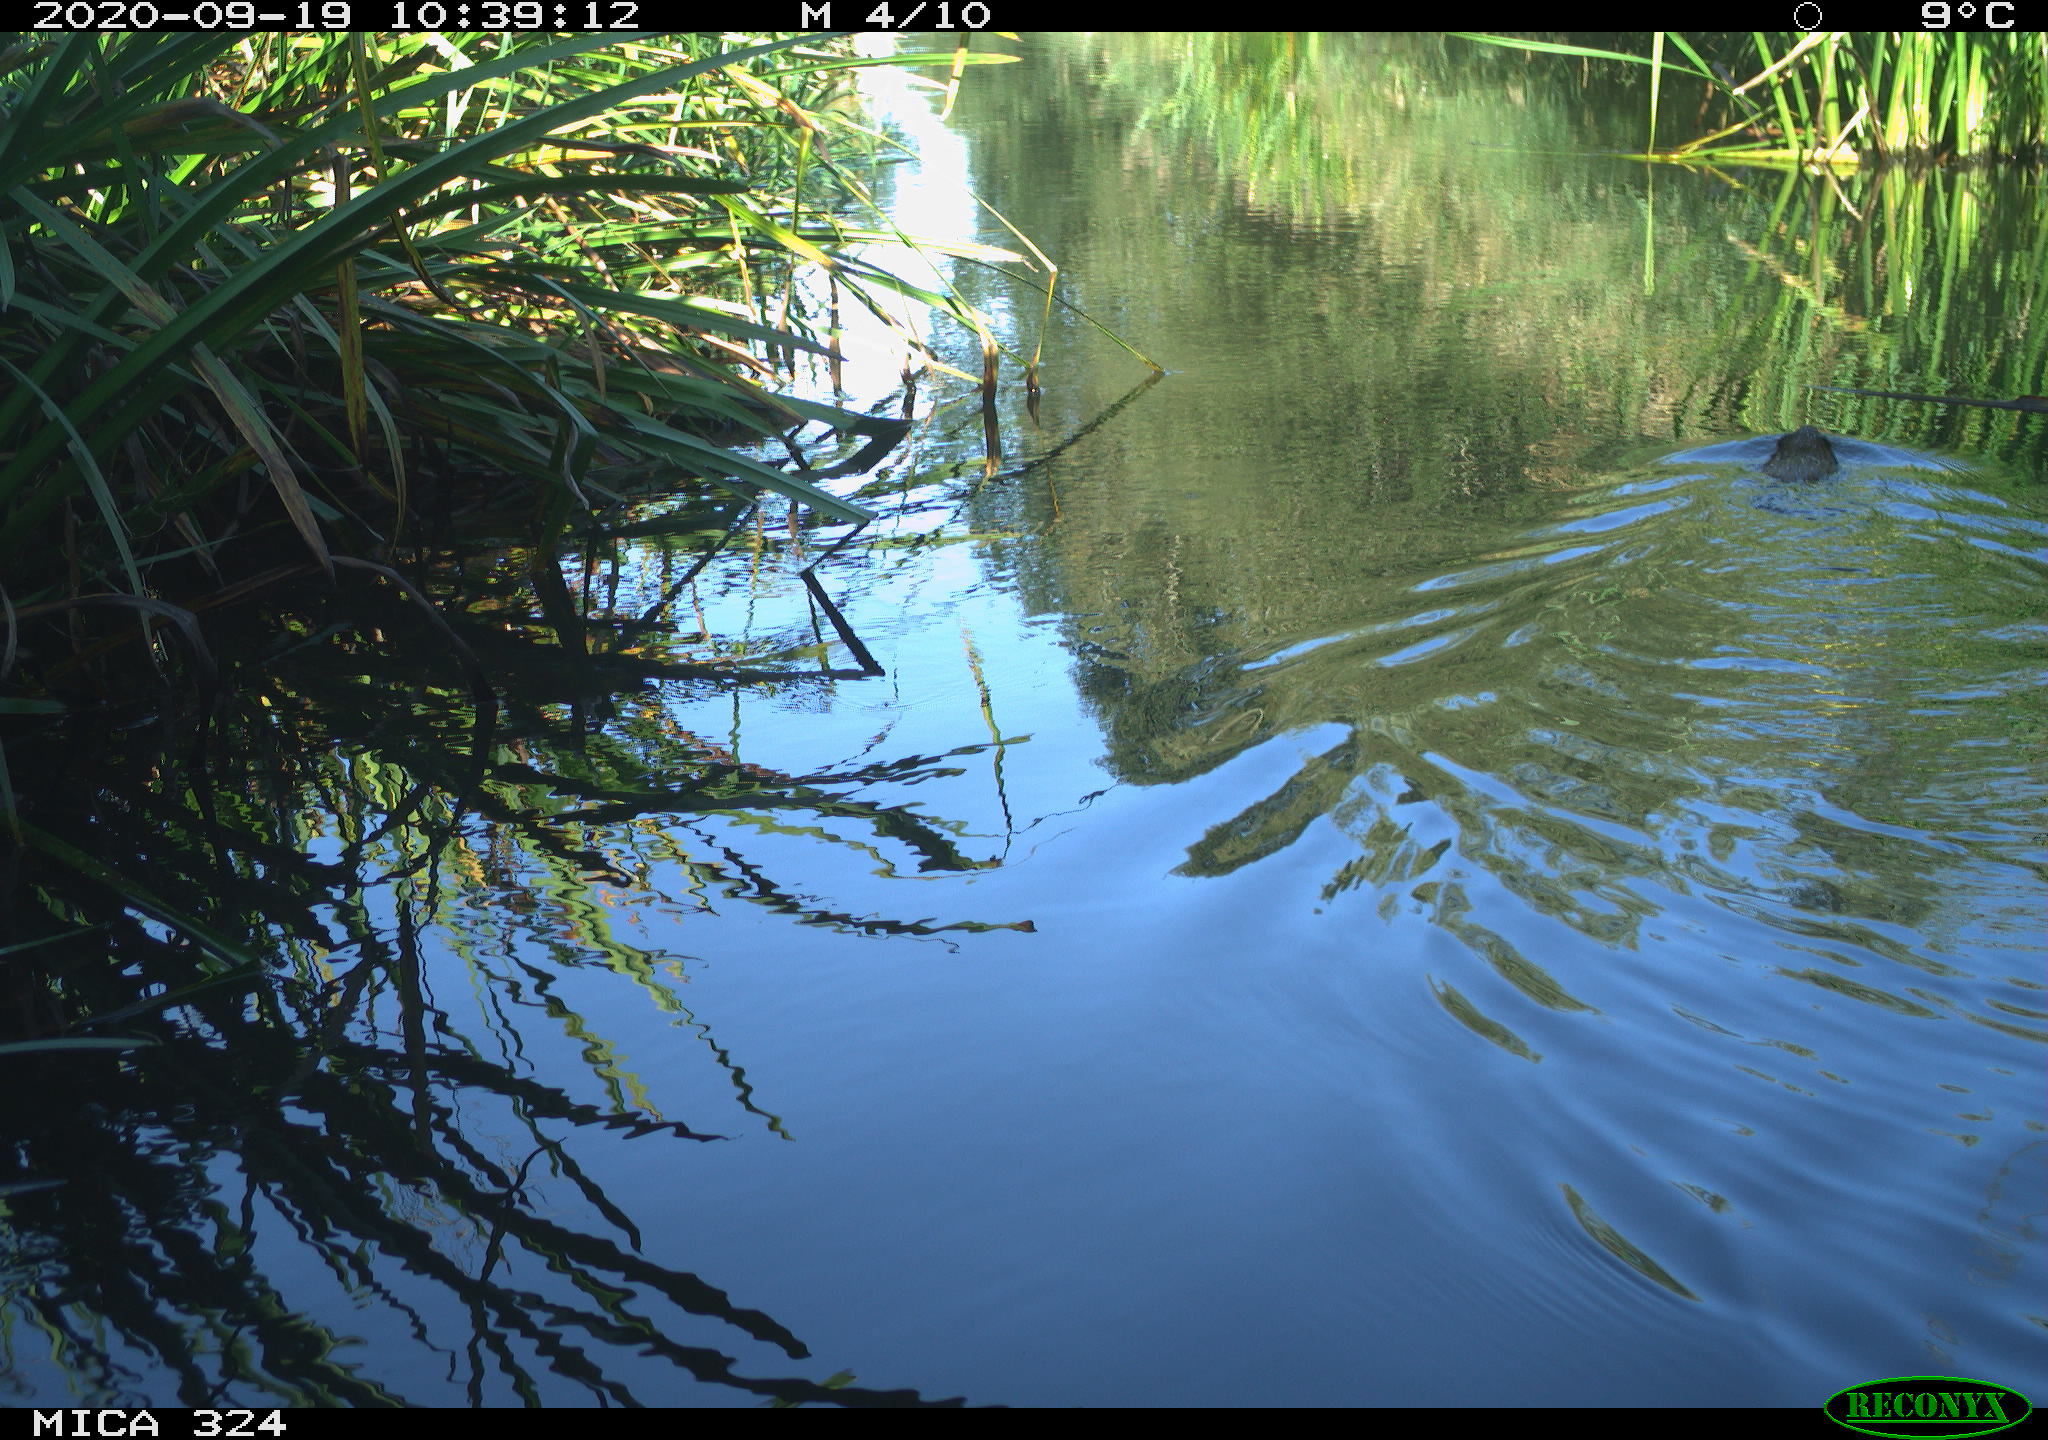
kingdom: Animalia
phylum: Chordata
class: Mammalia
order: Rodentia
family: Cricetidae
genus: Ondatra
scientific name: Ondatra zibethicus
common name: Muskrat
